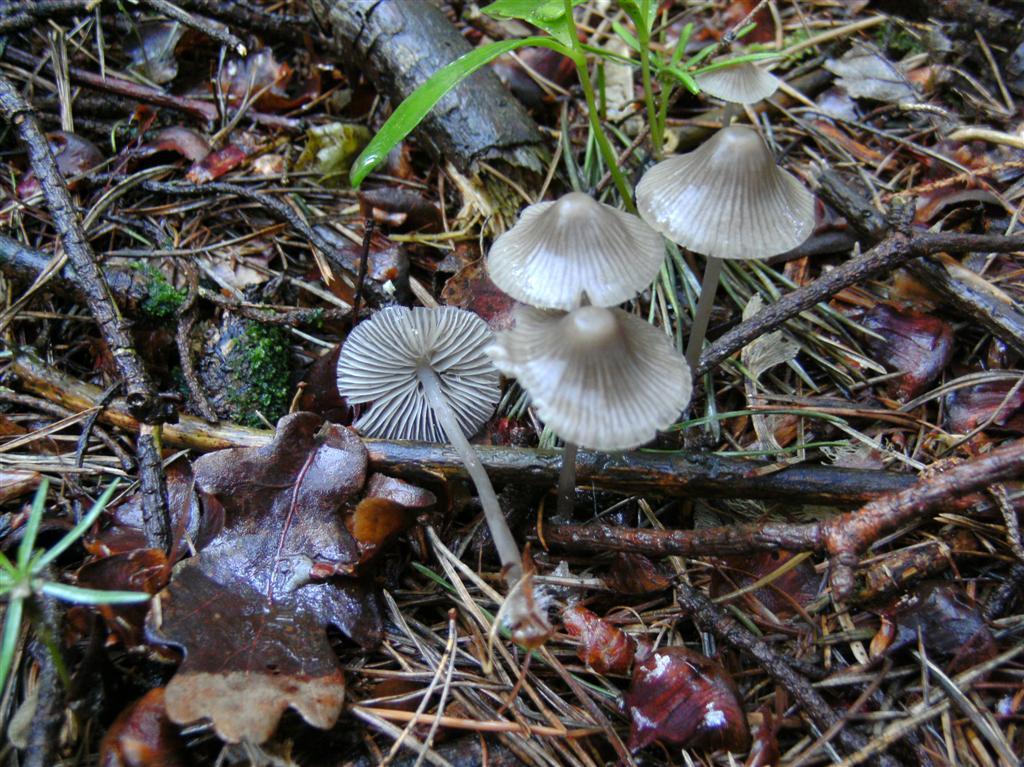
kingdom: Fungi
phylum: Basidiomycota
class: Agaricomycetes
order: Agaricales
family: Mycenaceae
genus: Mycena
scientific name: Mycena leptocephala
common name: klor-huesvamp
